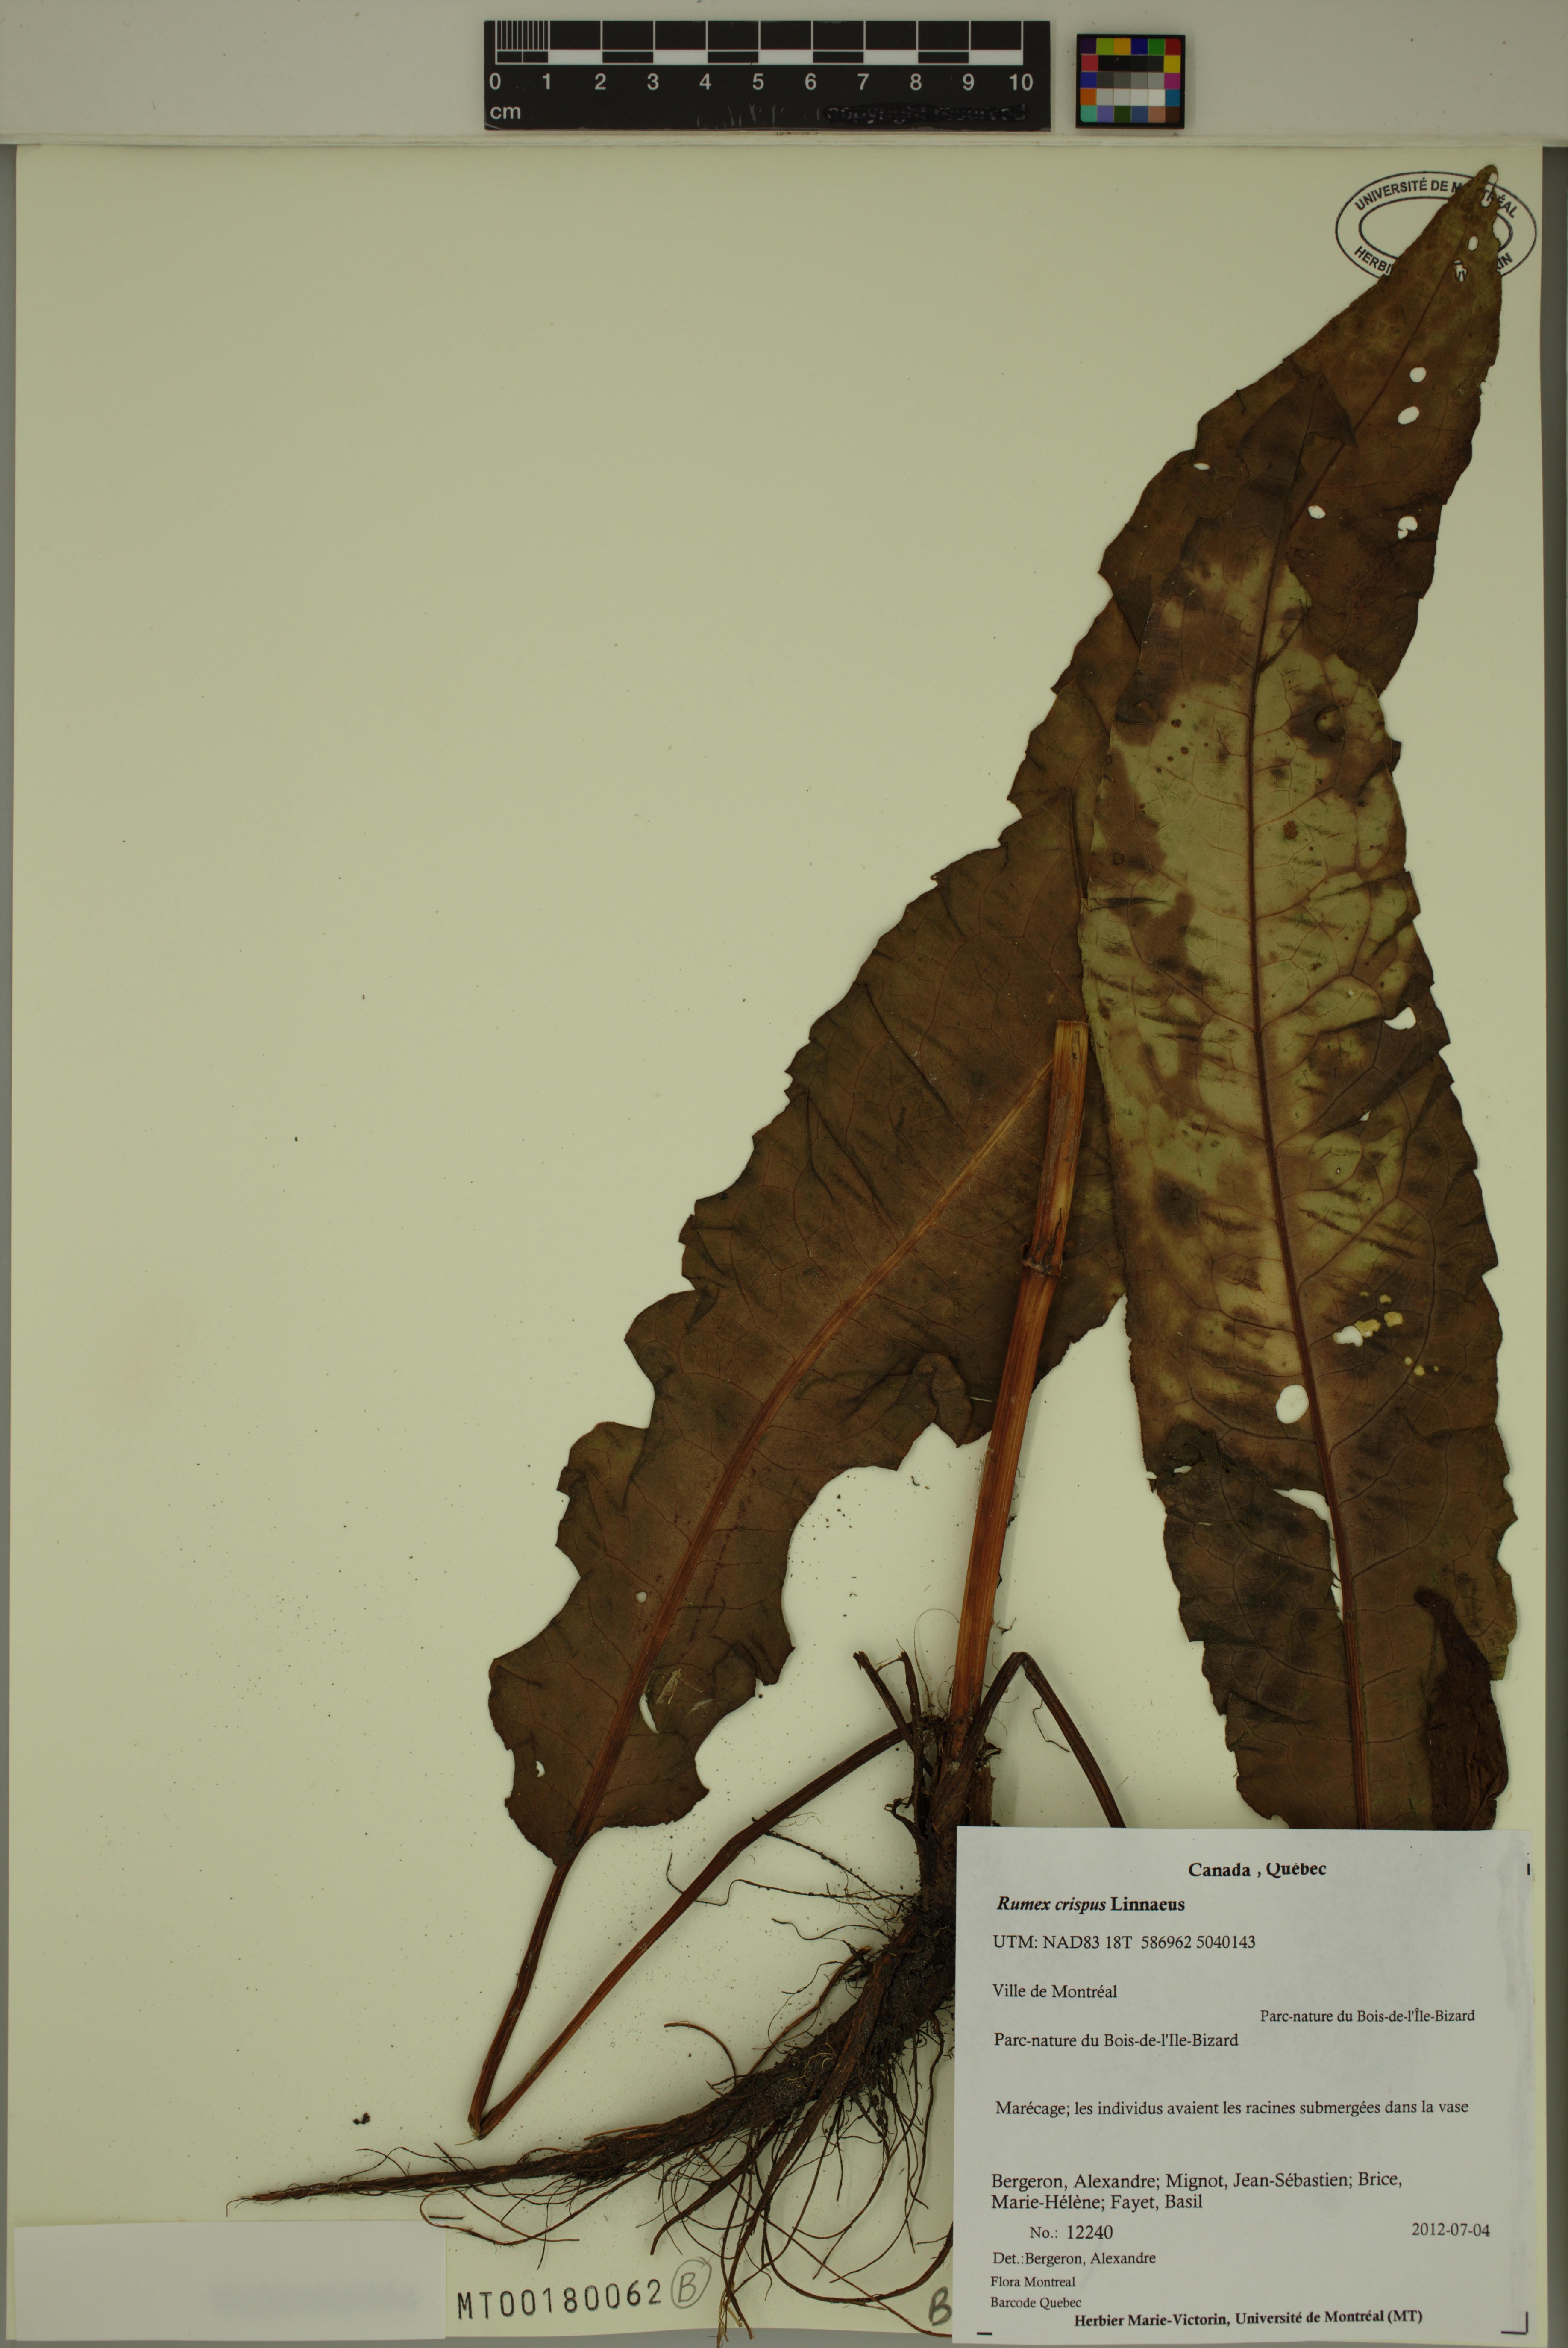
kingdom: Plantae
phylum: Tracheophyta
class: Magnoliopsida
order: Caryophyllales
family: Polygonaceae
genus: Rumex
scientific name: Rumex crispus
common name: Curled dock
